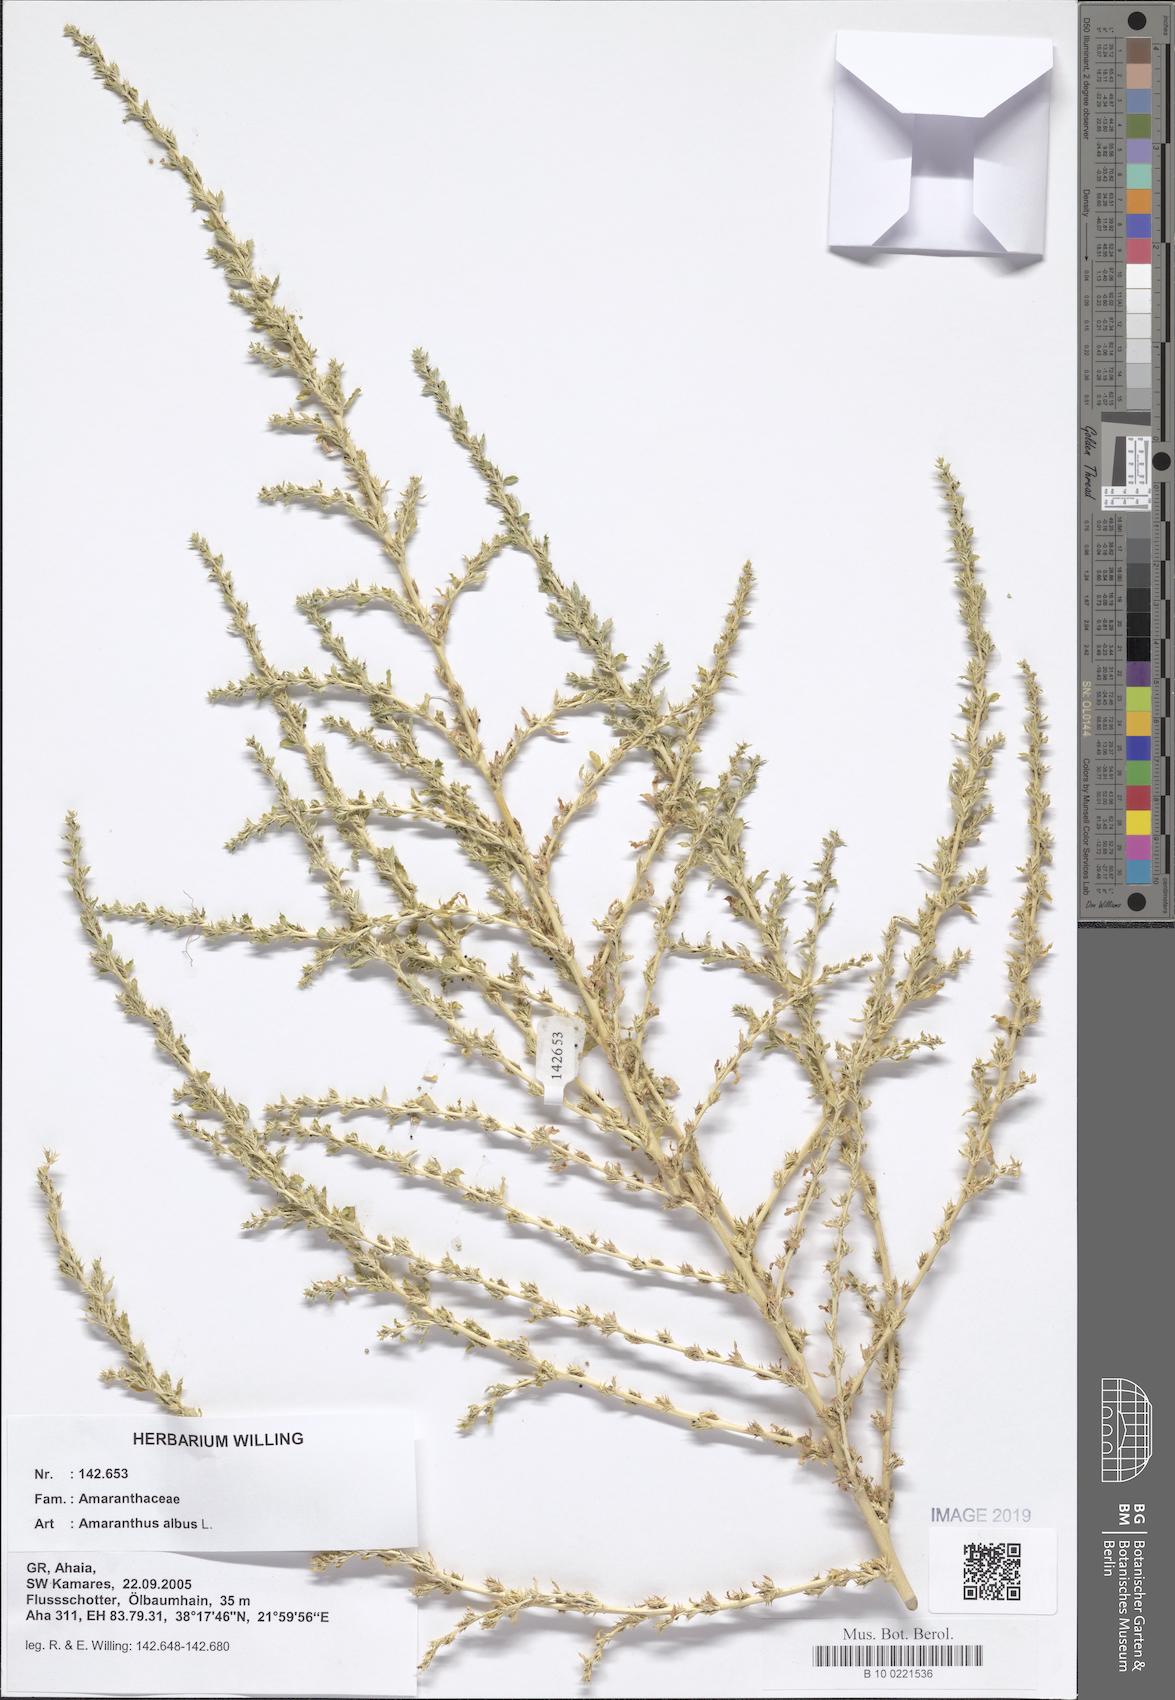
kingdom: Plantae
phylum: Tracheophyta
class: Magnoliopsida
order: Caryophyllales
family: Amaranthaceae
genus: Amaranthus
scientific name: Amaranthus albus
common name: White pigweed
